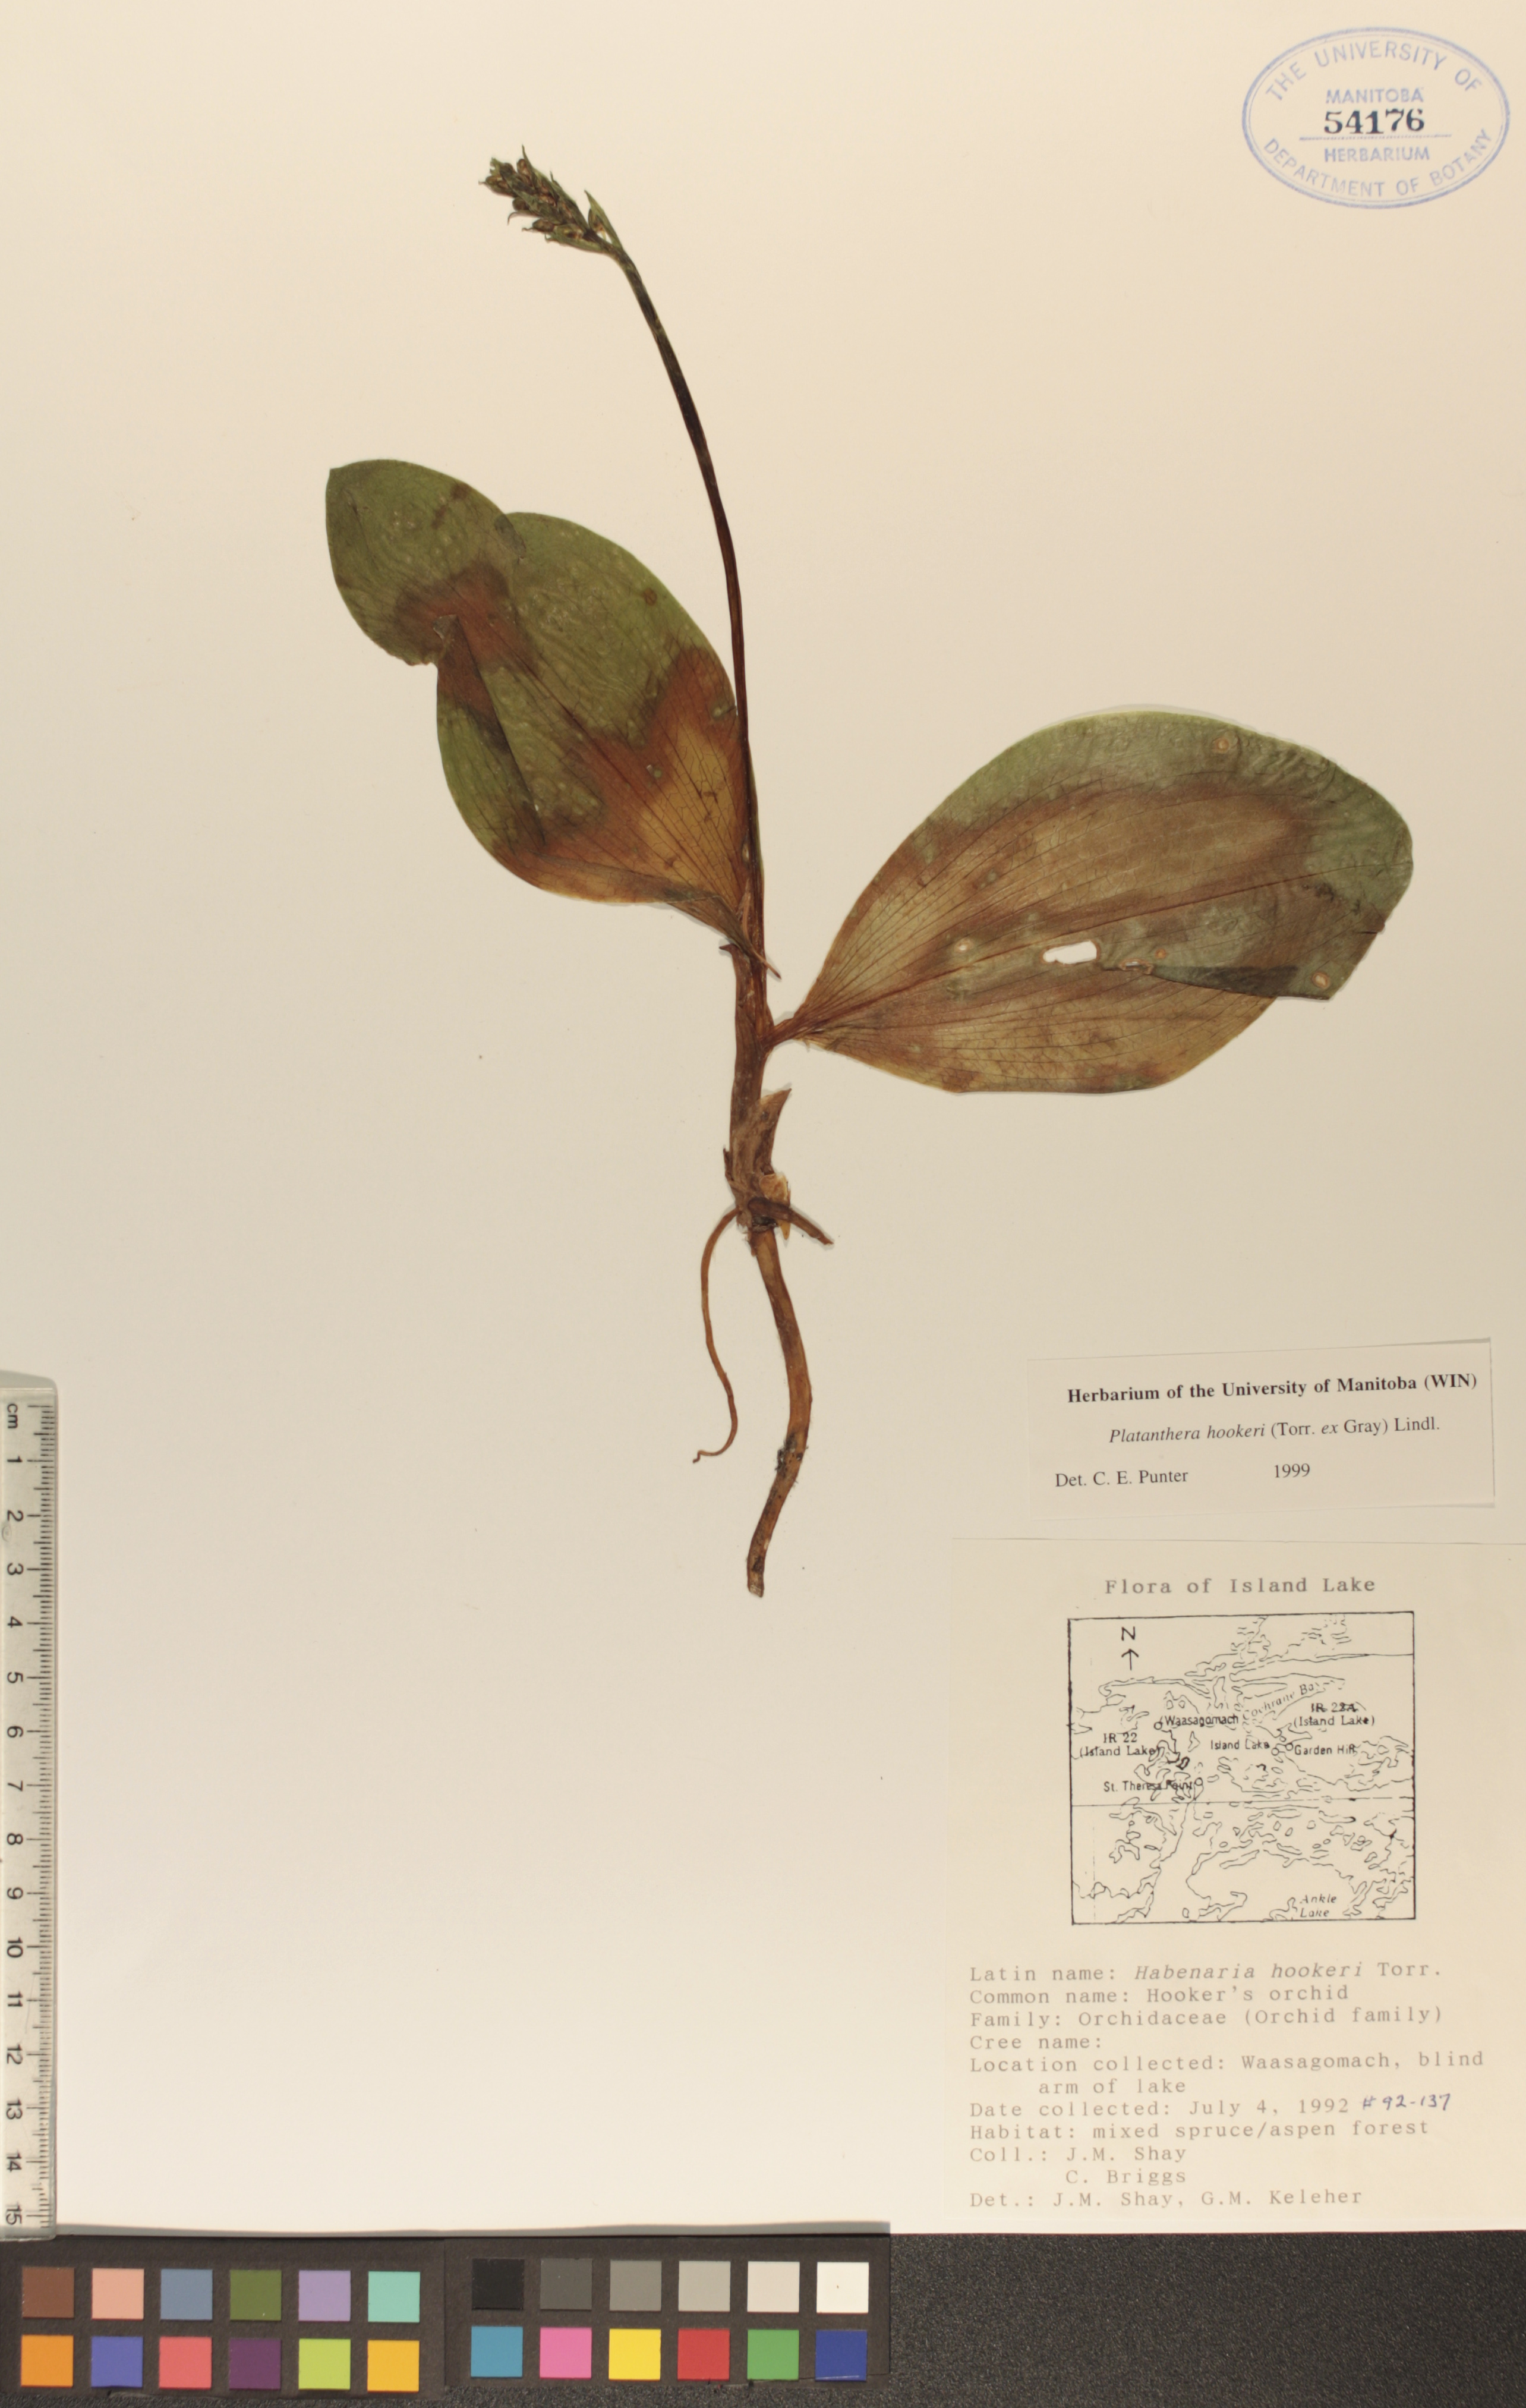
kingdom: Plantae
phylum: Tracheophyta
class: Liliopsida
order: Asparagales
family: Orchidaceae
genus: Platanthera
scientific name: Platanthera hookeri
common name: Hooker's orchid
